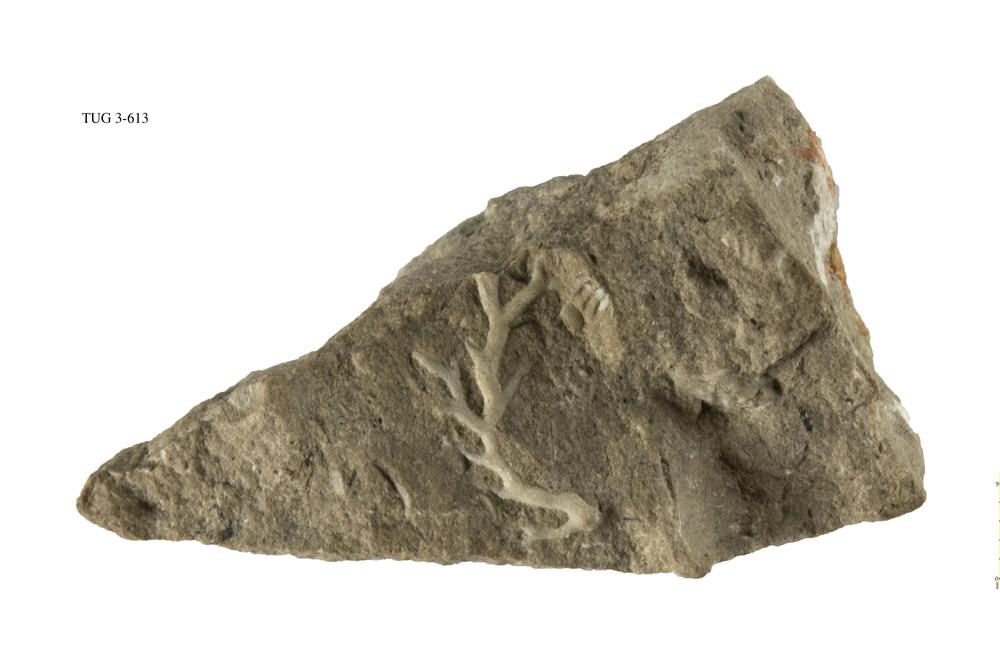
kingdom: Animalia
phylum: Bryozoa
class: Stenolaemata
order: Fenestrida
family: Phylloporinidae
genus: Pseudohornera
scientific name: Pseudohornera orosa
